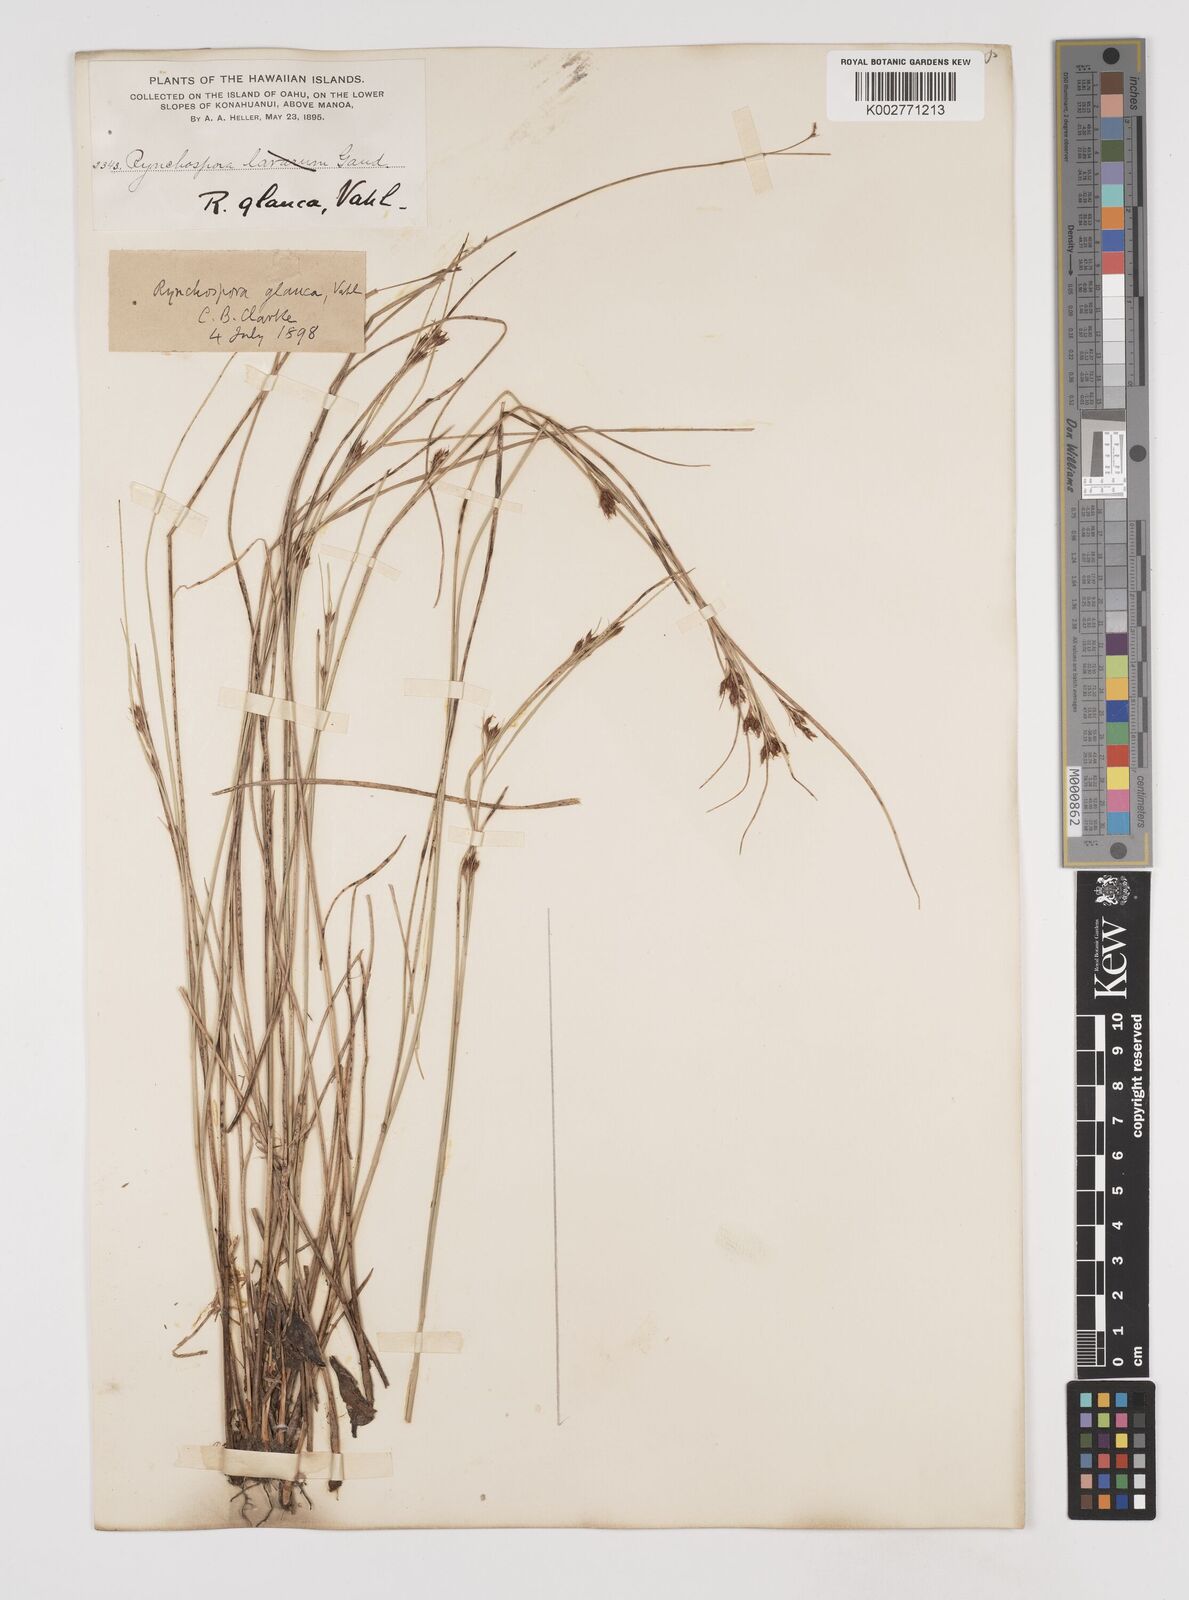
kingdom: Plantae
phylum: Tracheophyta
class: Liliopsida
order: Poales
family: Cyperaceae
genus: Rhynchospora
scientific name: Rhynchospora rugosa
